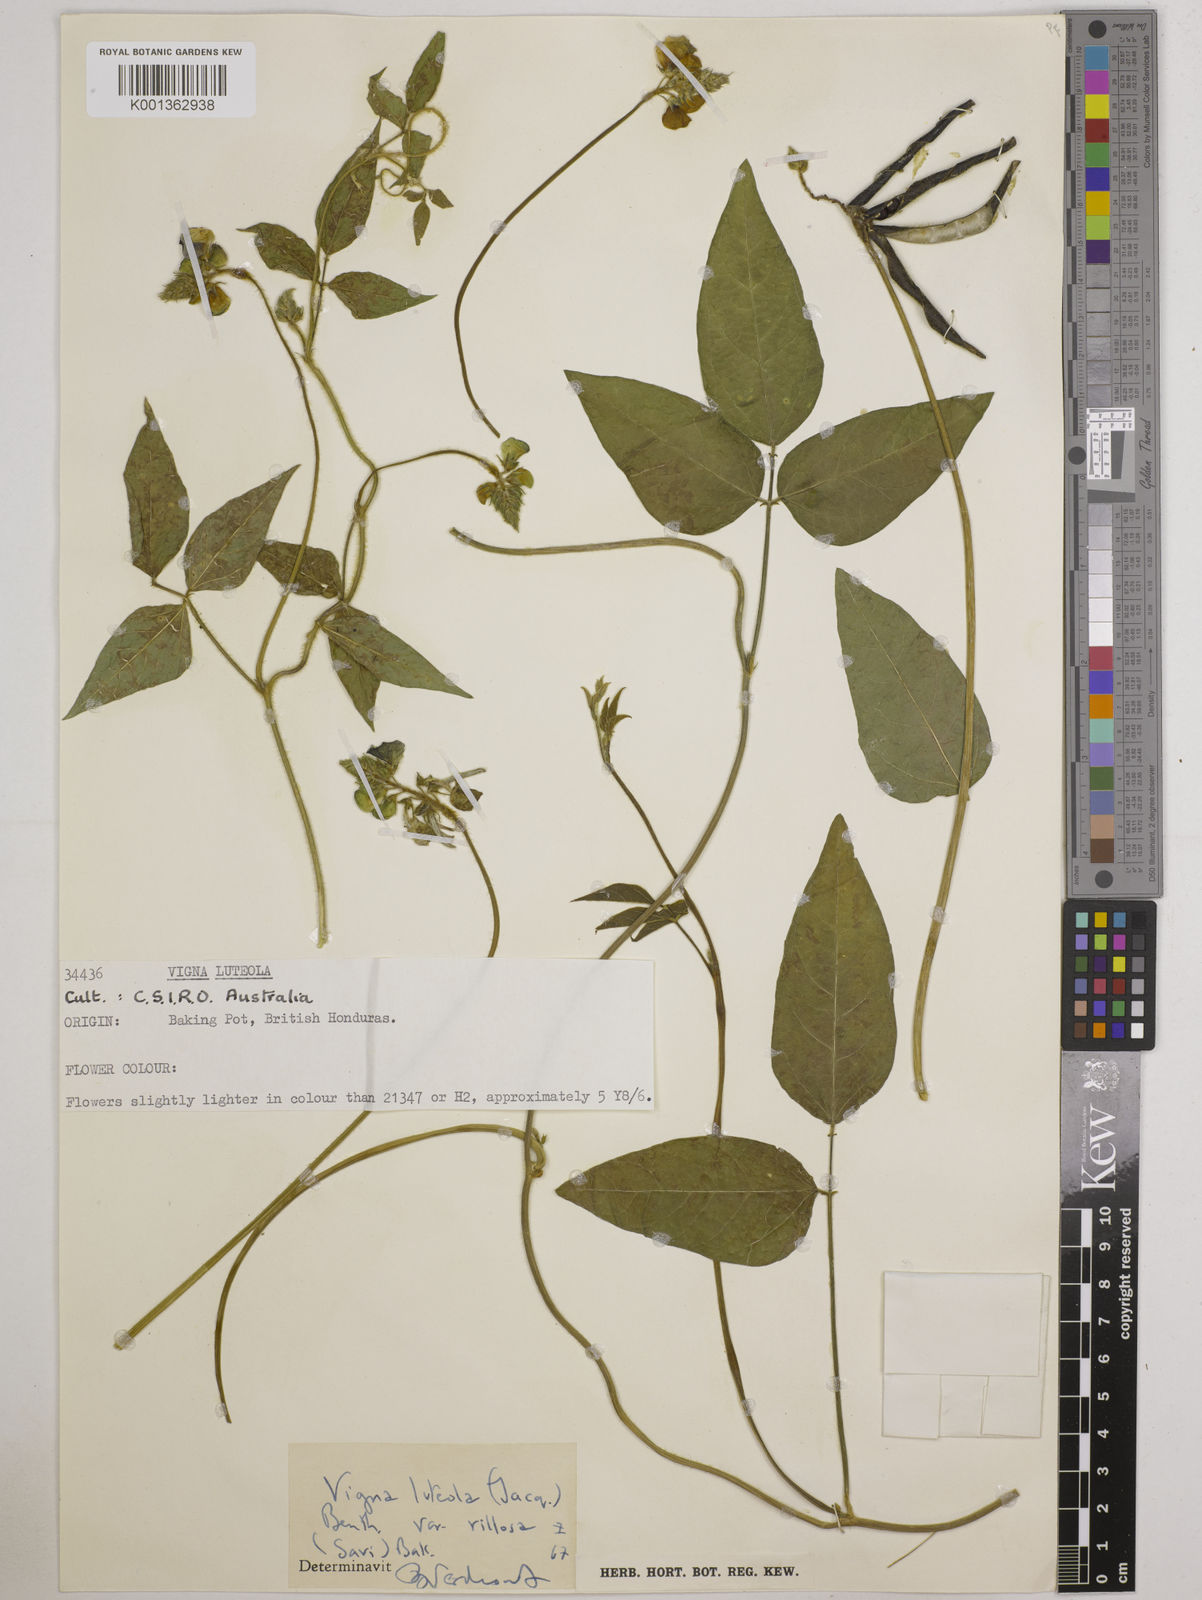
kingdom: Plantae
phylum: Tracheophyta
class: Magnoliopsida
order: Fabales
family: Fabaceae
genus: Vigna
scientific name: Vigna
